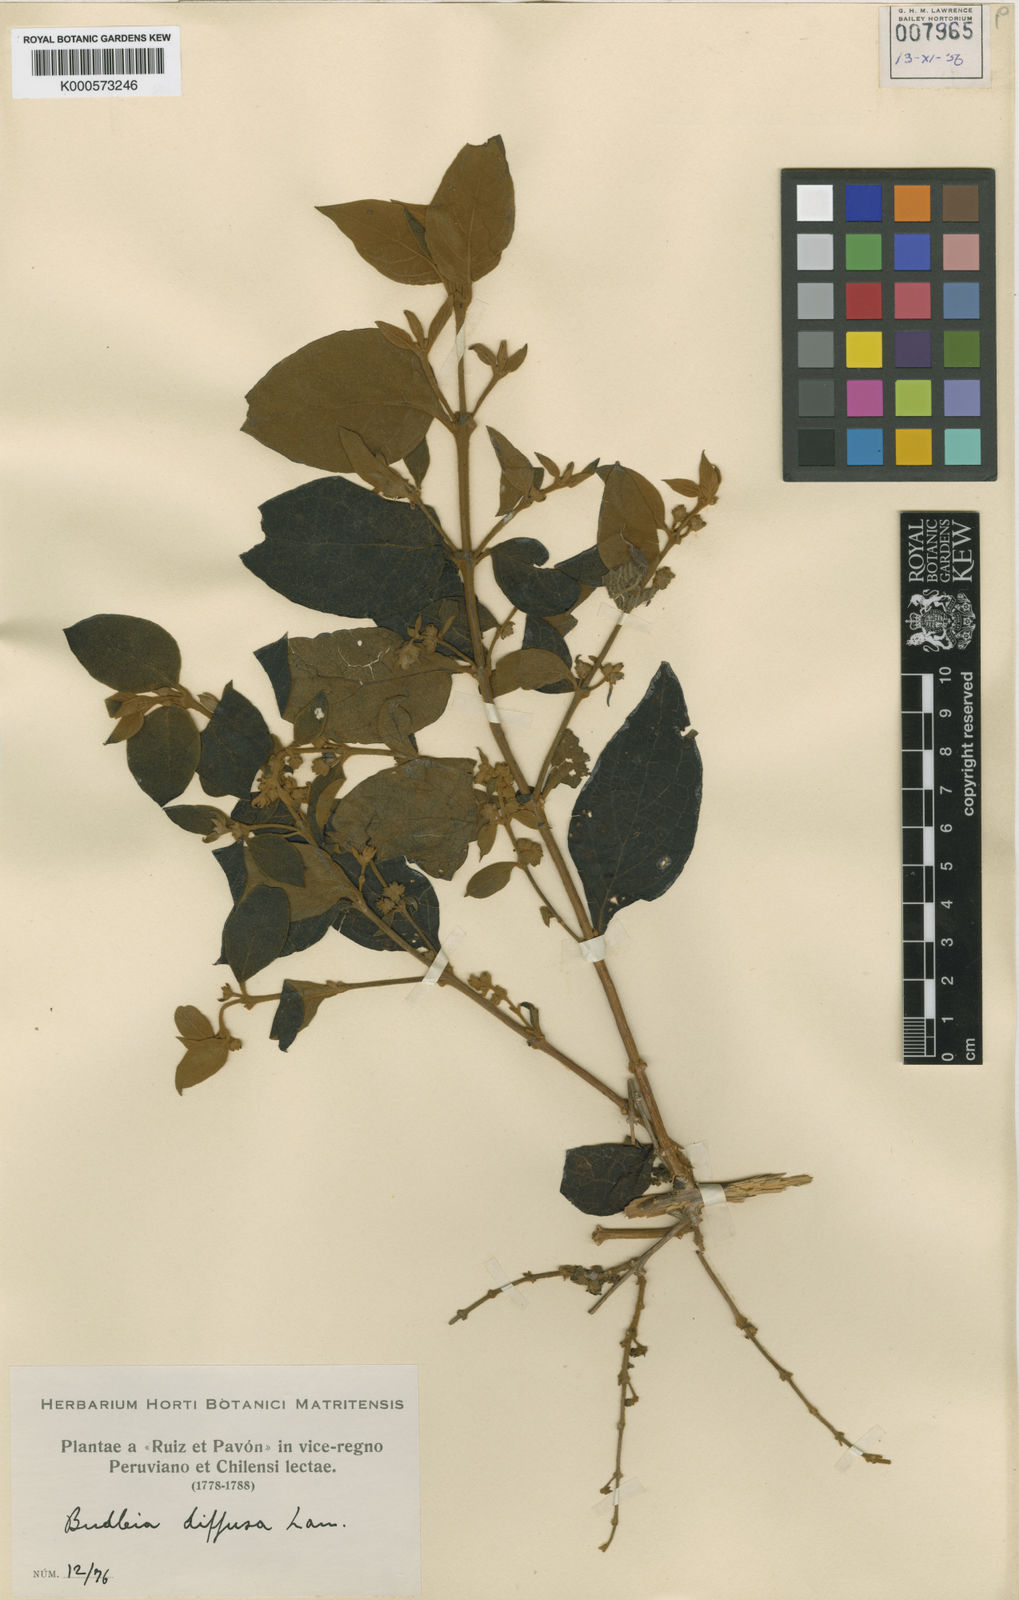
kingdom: Plantae
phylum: Tracheophyta
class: Magnoliopsida
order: Lamiales
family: Scrophulariaceae
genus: Buddleja
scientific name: Buddleja diffusa
